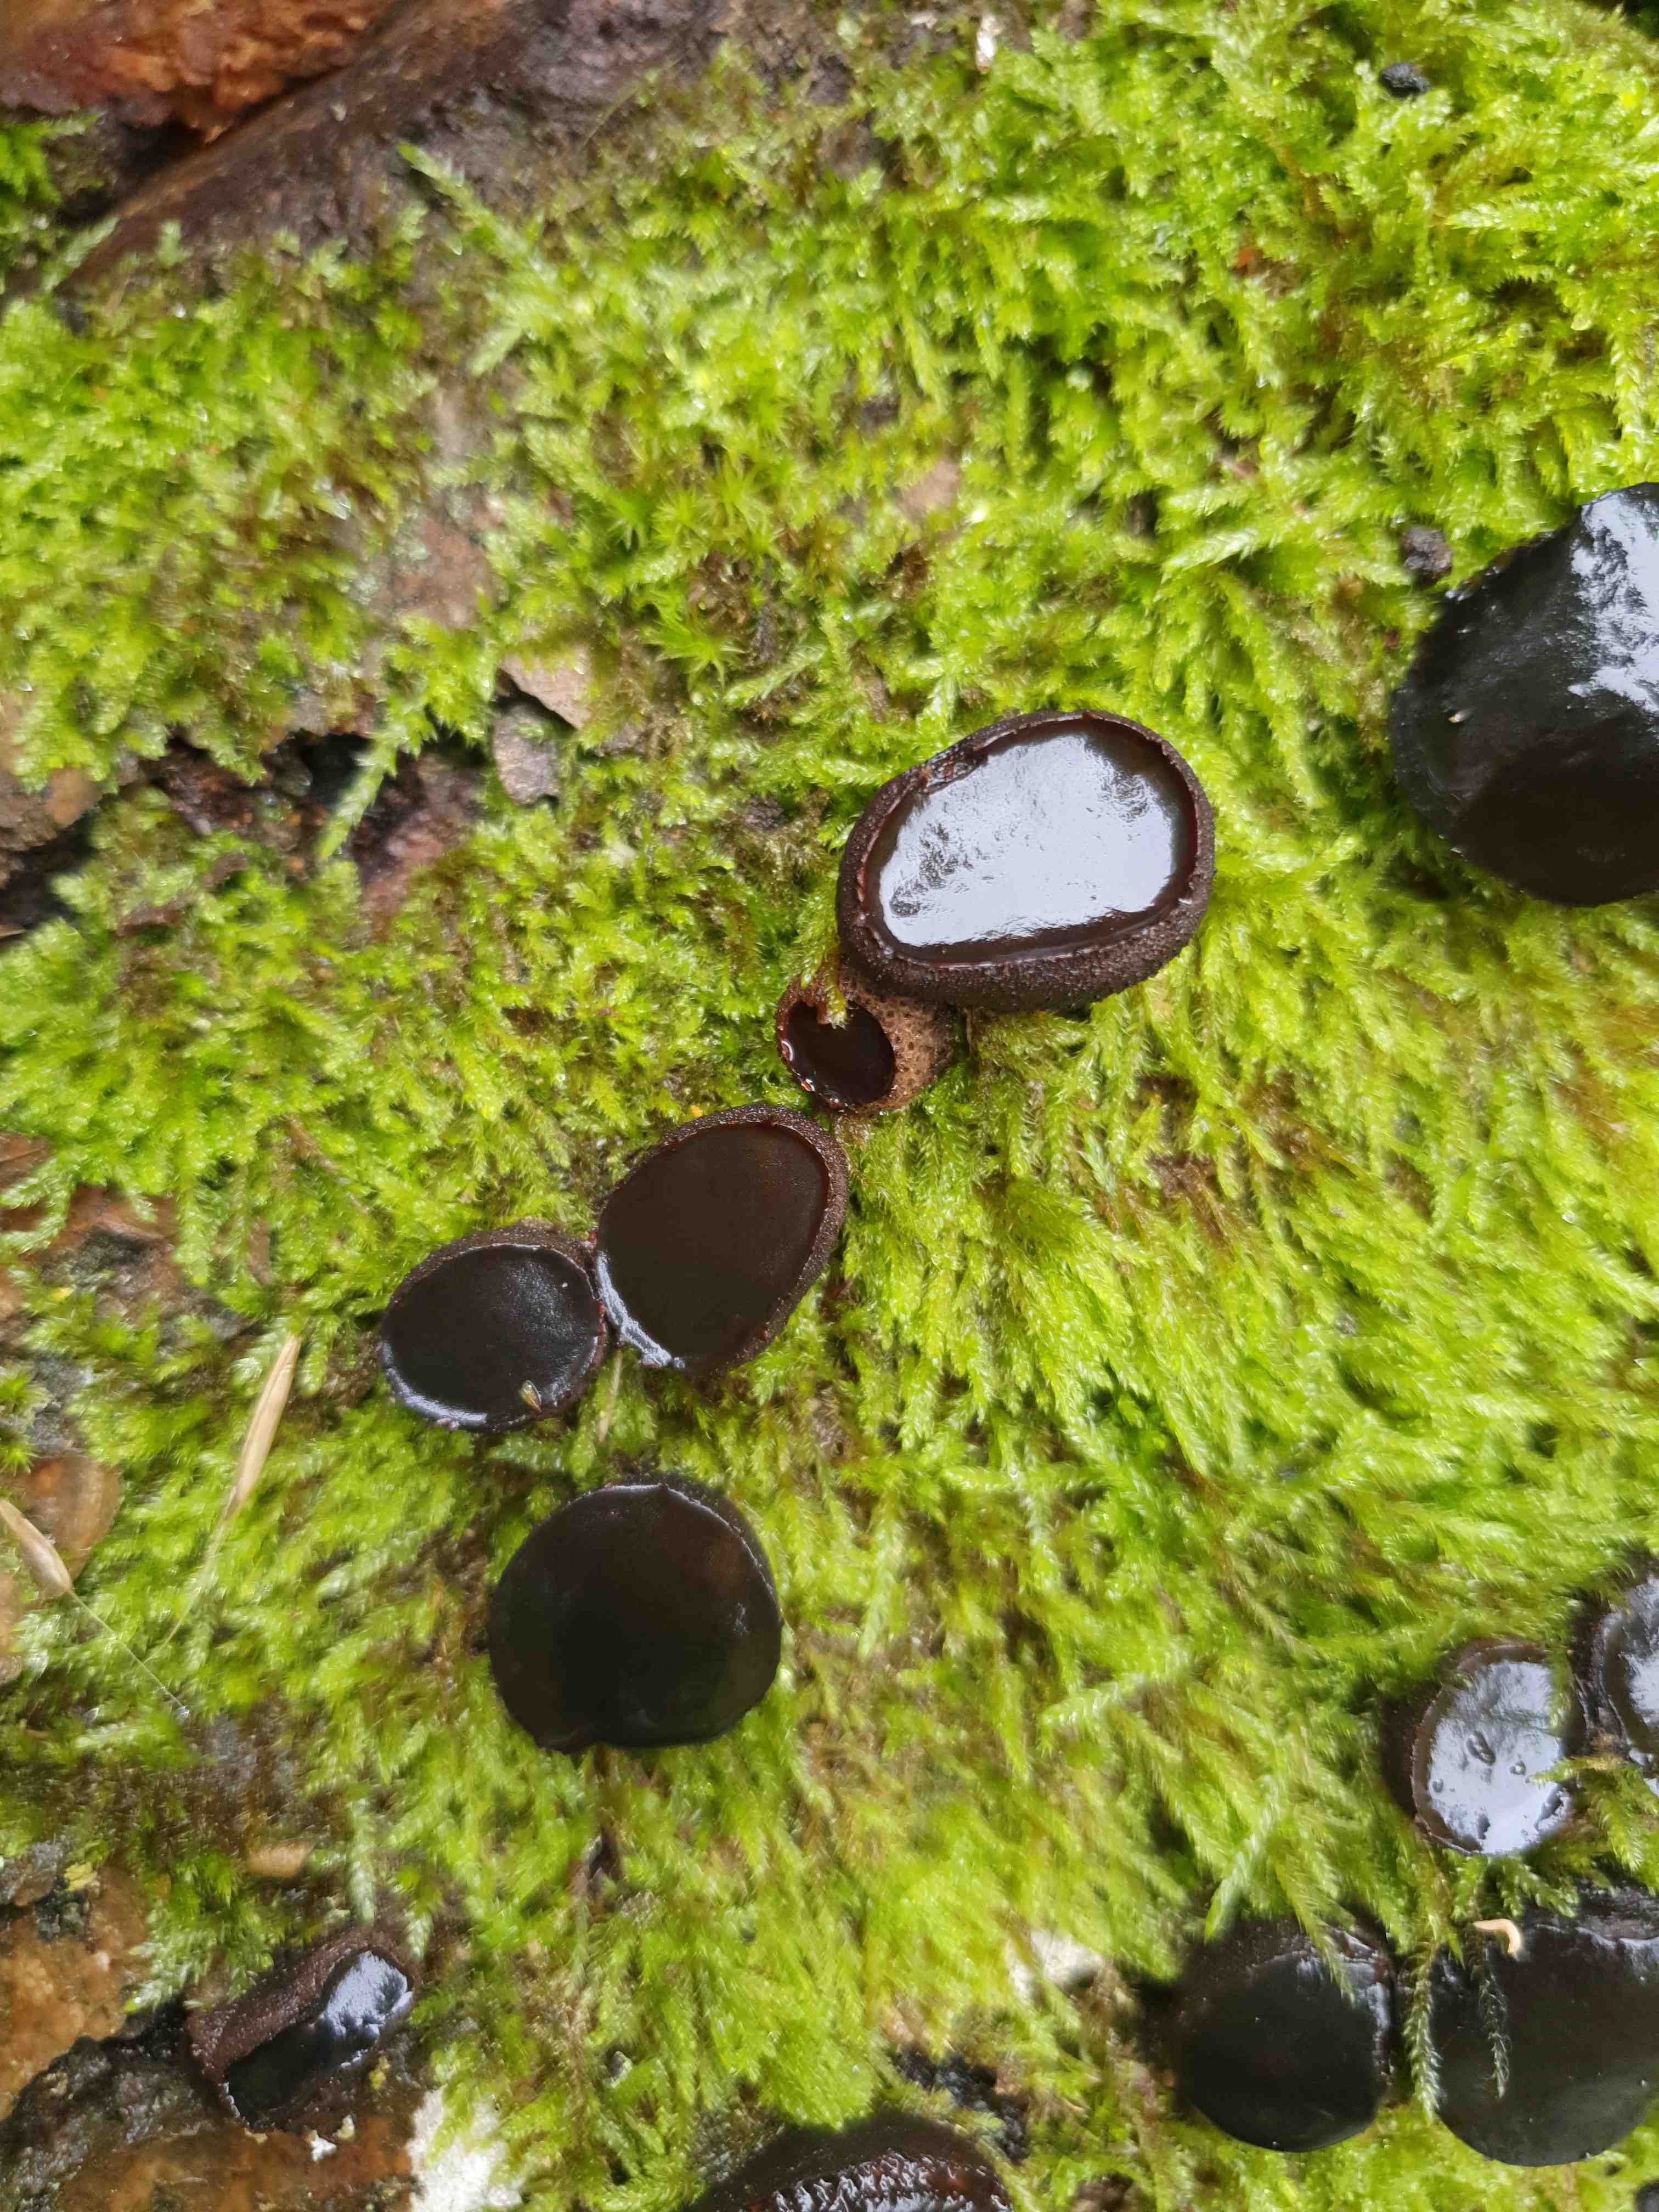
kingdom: Fungi
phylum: Ascomycota
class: Leotiomycetes
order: Phacidiales
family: Phacidiaceae
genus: Bulgaria
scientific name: Bulgaria inquinans
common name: afsmittende topsvamp
